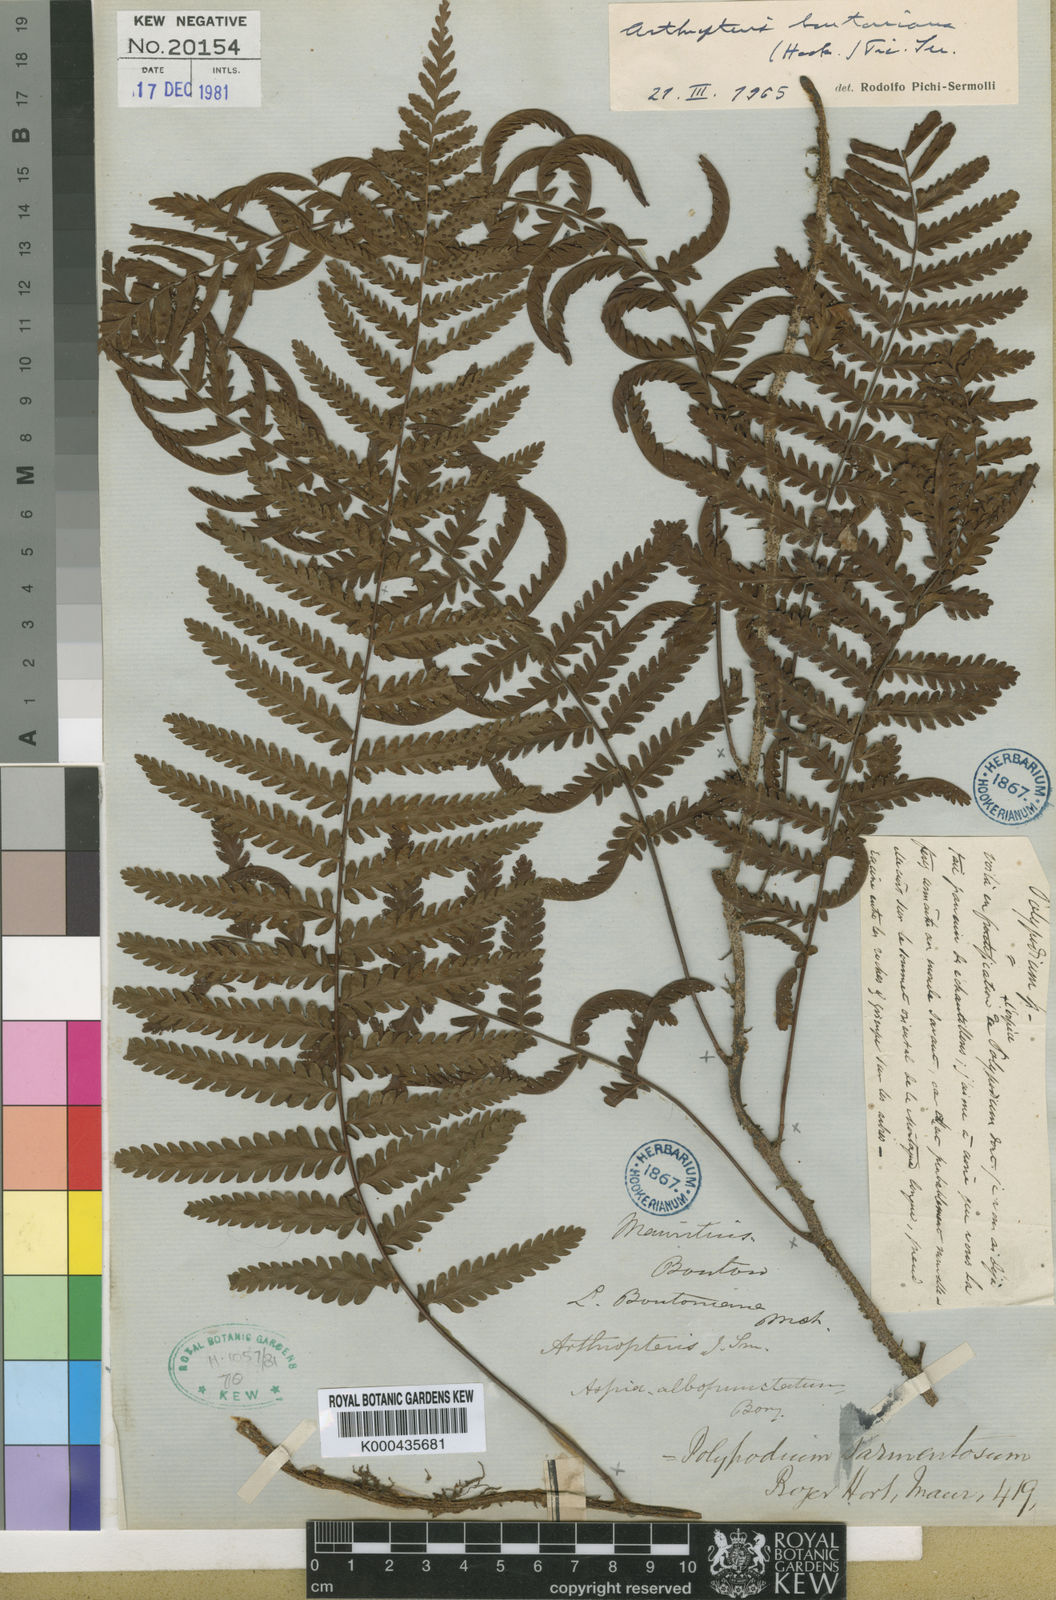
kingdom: Plantae
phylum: Tracheophyta
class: Polypodiopsida
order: Polypodiales
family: Tectariaceae
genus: Arthropteris
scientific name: Arthropteris orientalis
